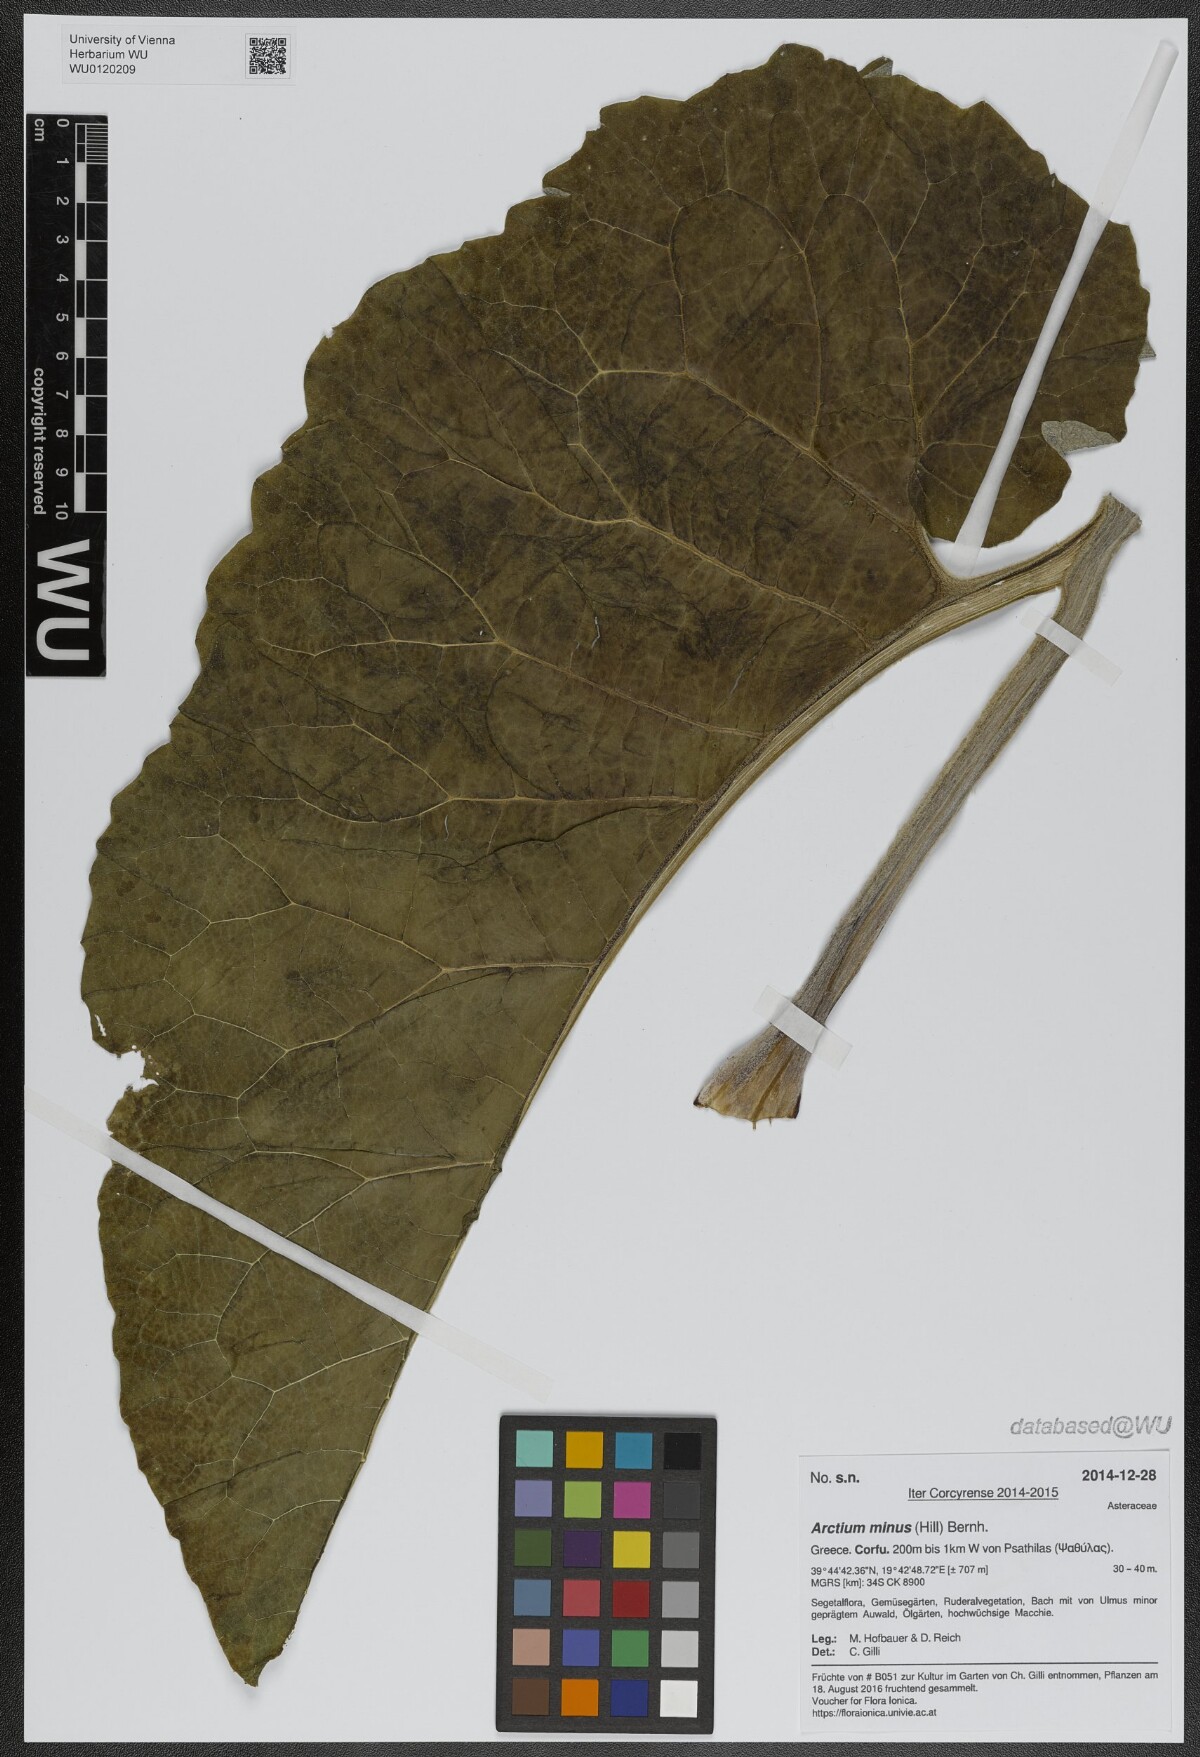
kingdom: Plantae
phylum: Tracheophyta
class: Magnoliopsida
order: Asterales
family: Asteraceae
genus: Arctium
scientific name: Arctium minus
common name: Lesser burdock
